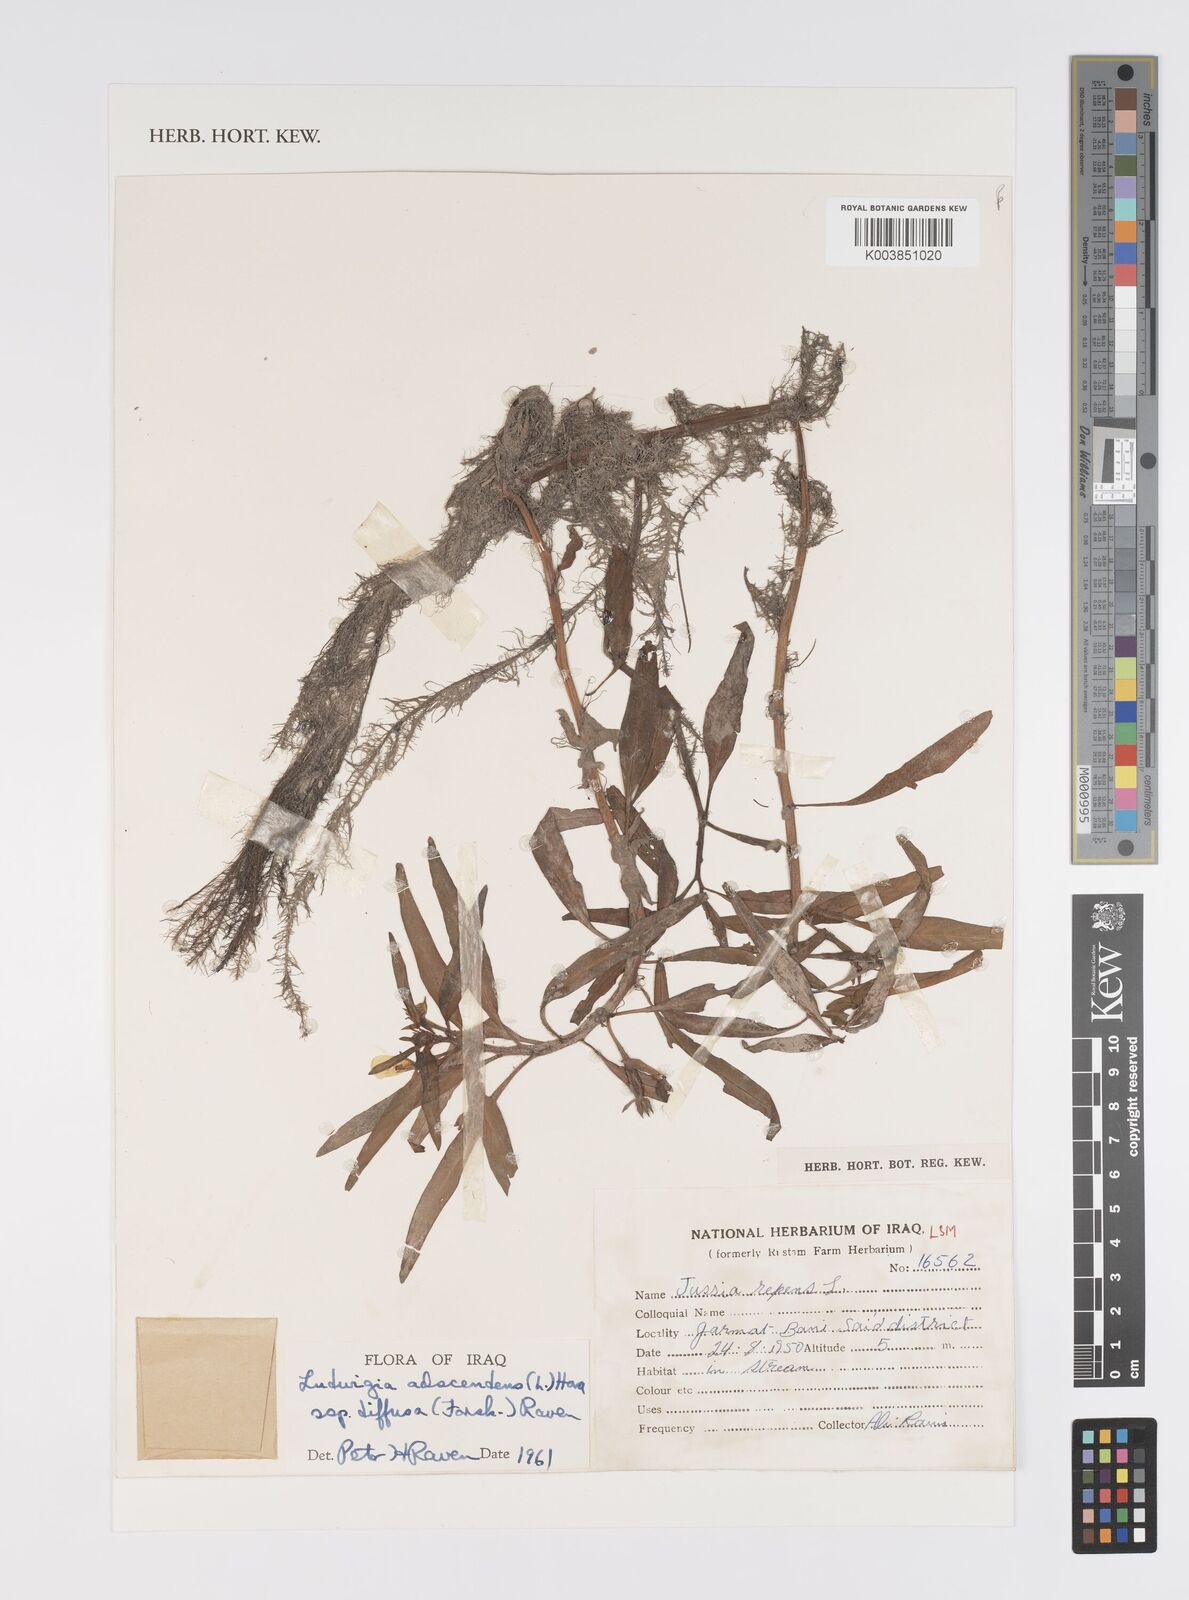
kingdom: Plantae
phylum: Tracheophyta
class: Magnoliopsida
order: Myrtales
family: Onagraceae
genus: Ludwigia
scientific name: Ludwigia adscendens
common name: Creeping water primrose
